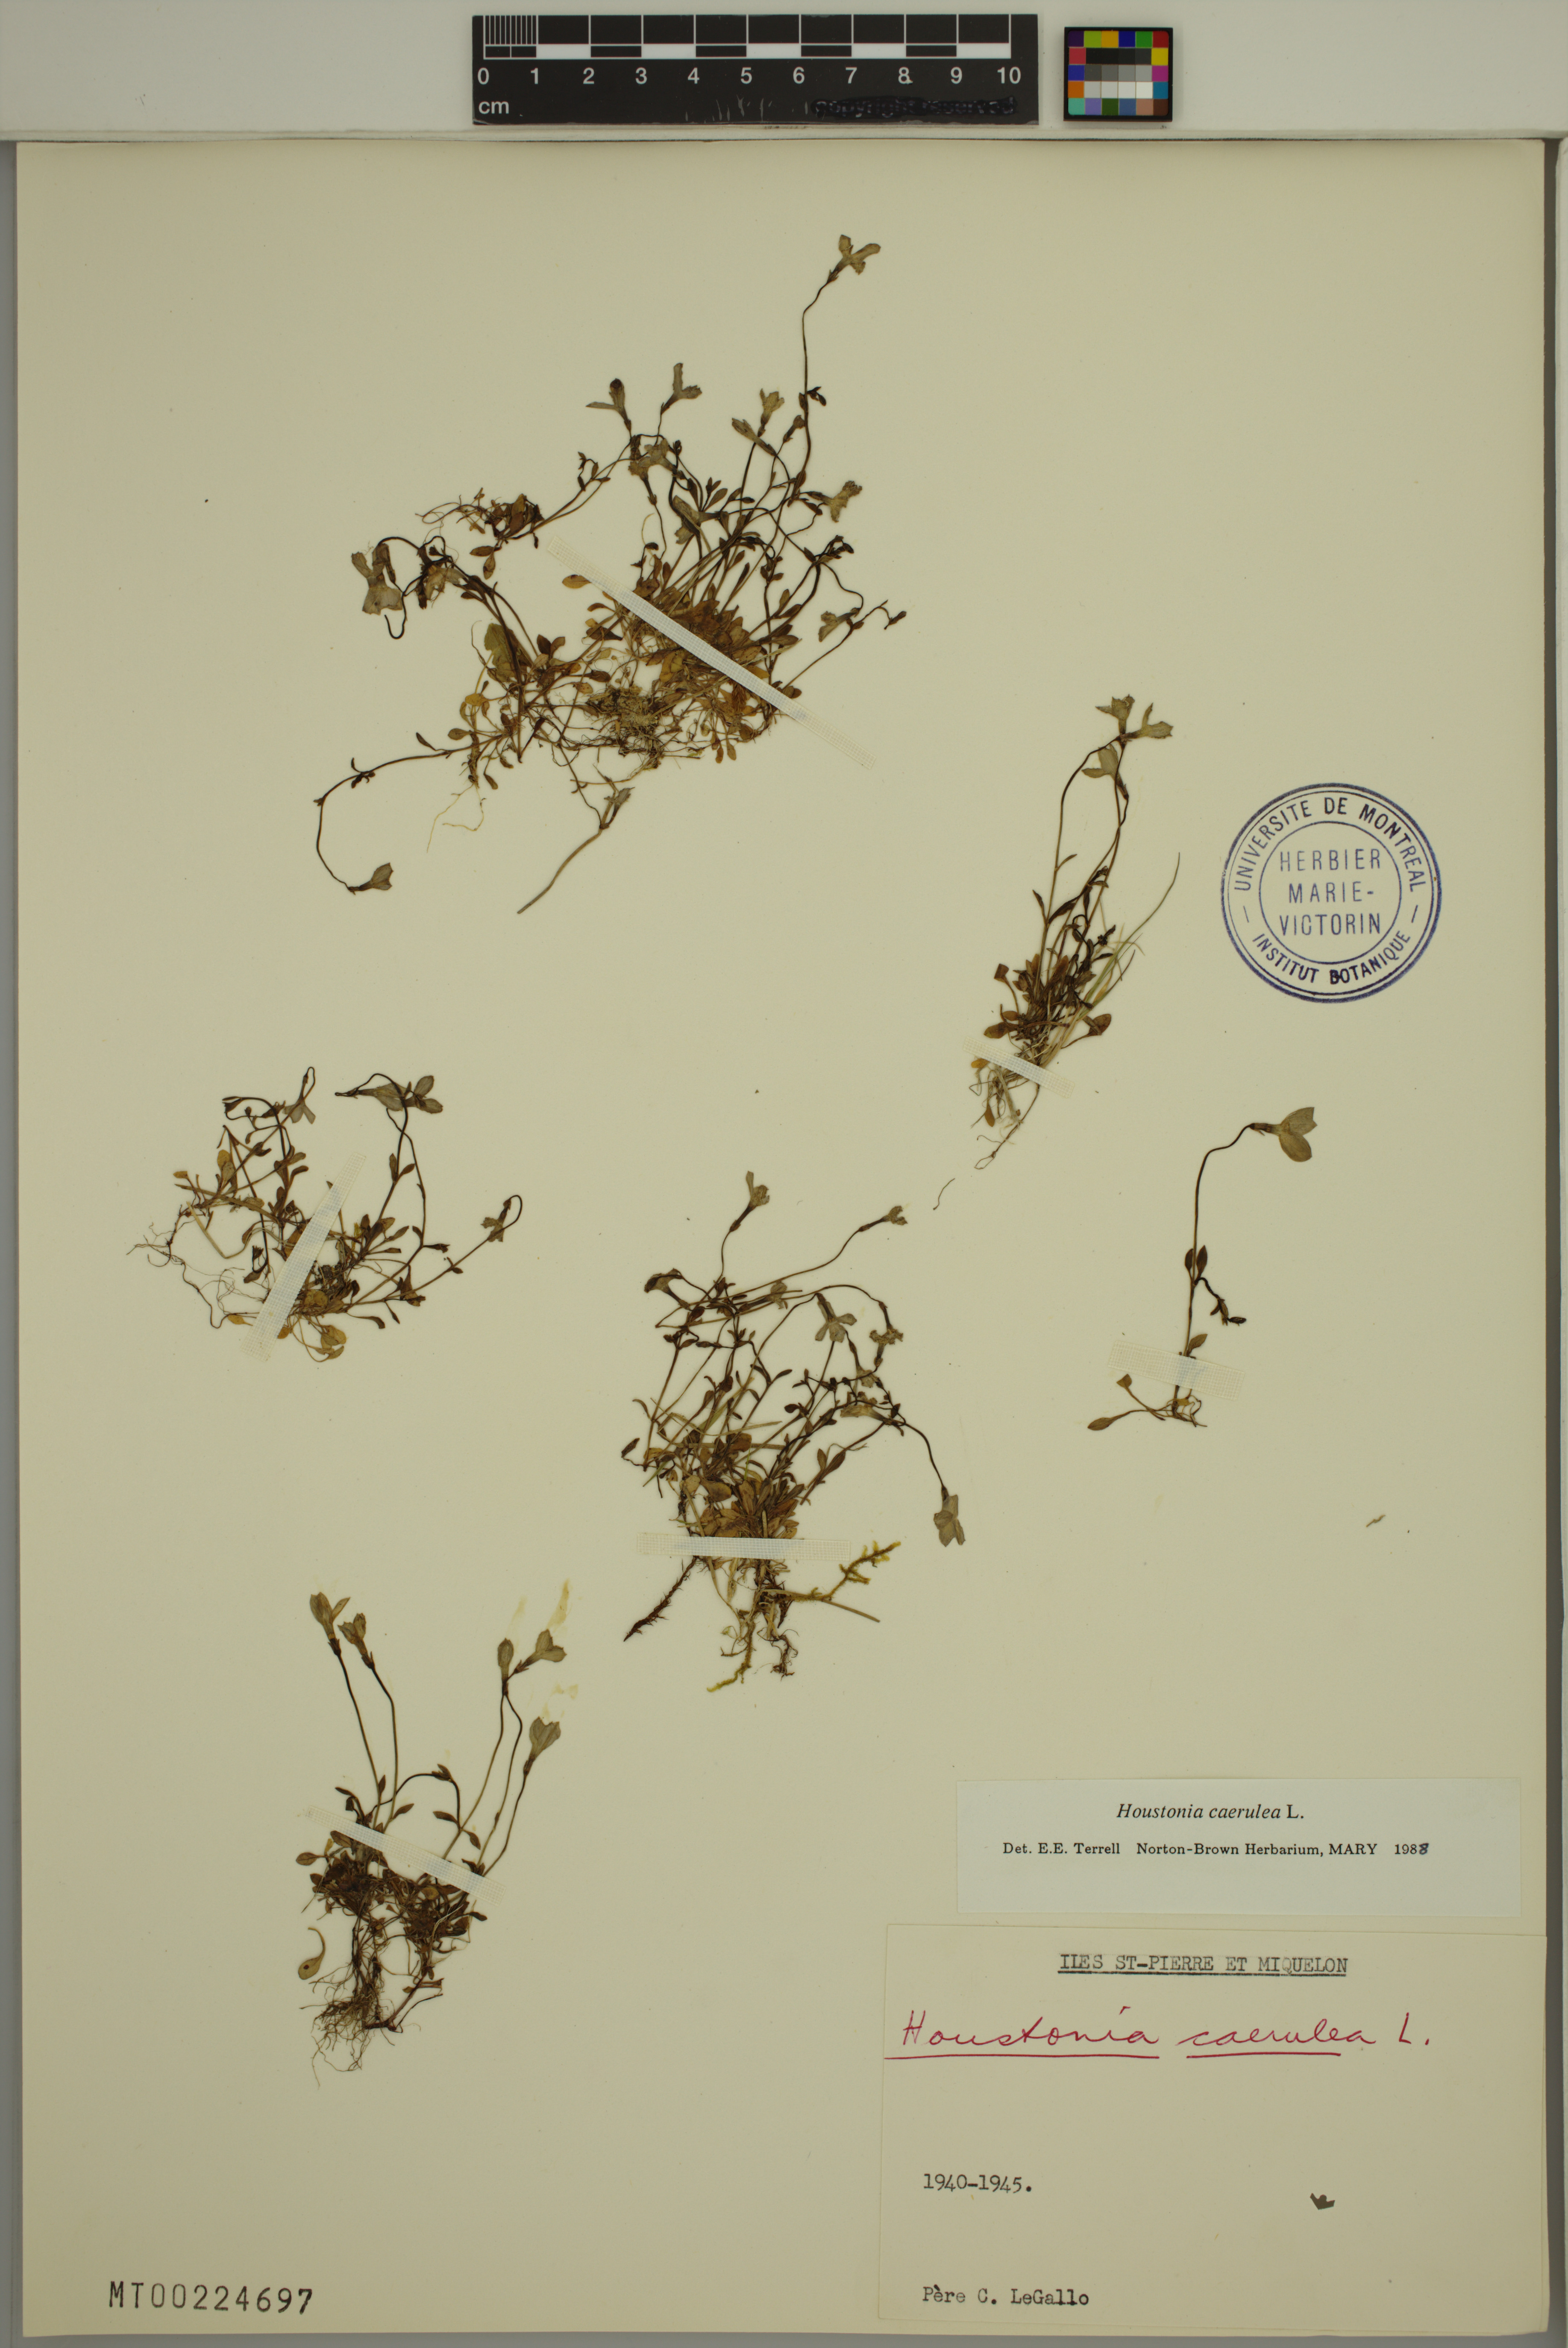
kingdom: Plantae
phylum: Tracheophyta
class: Magnoliopsida
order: Gentianales
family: Rubiaceae
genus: Houstonia
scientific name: Houstonia caerulea
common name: Bluets
